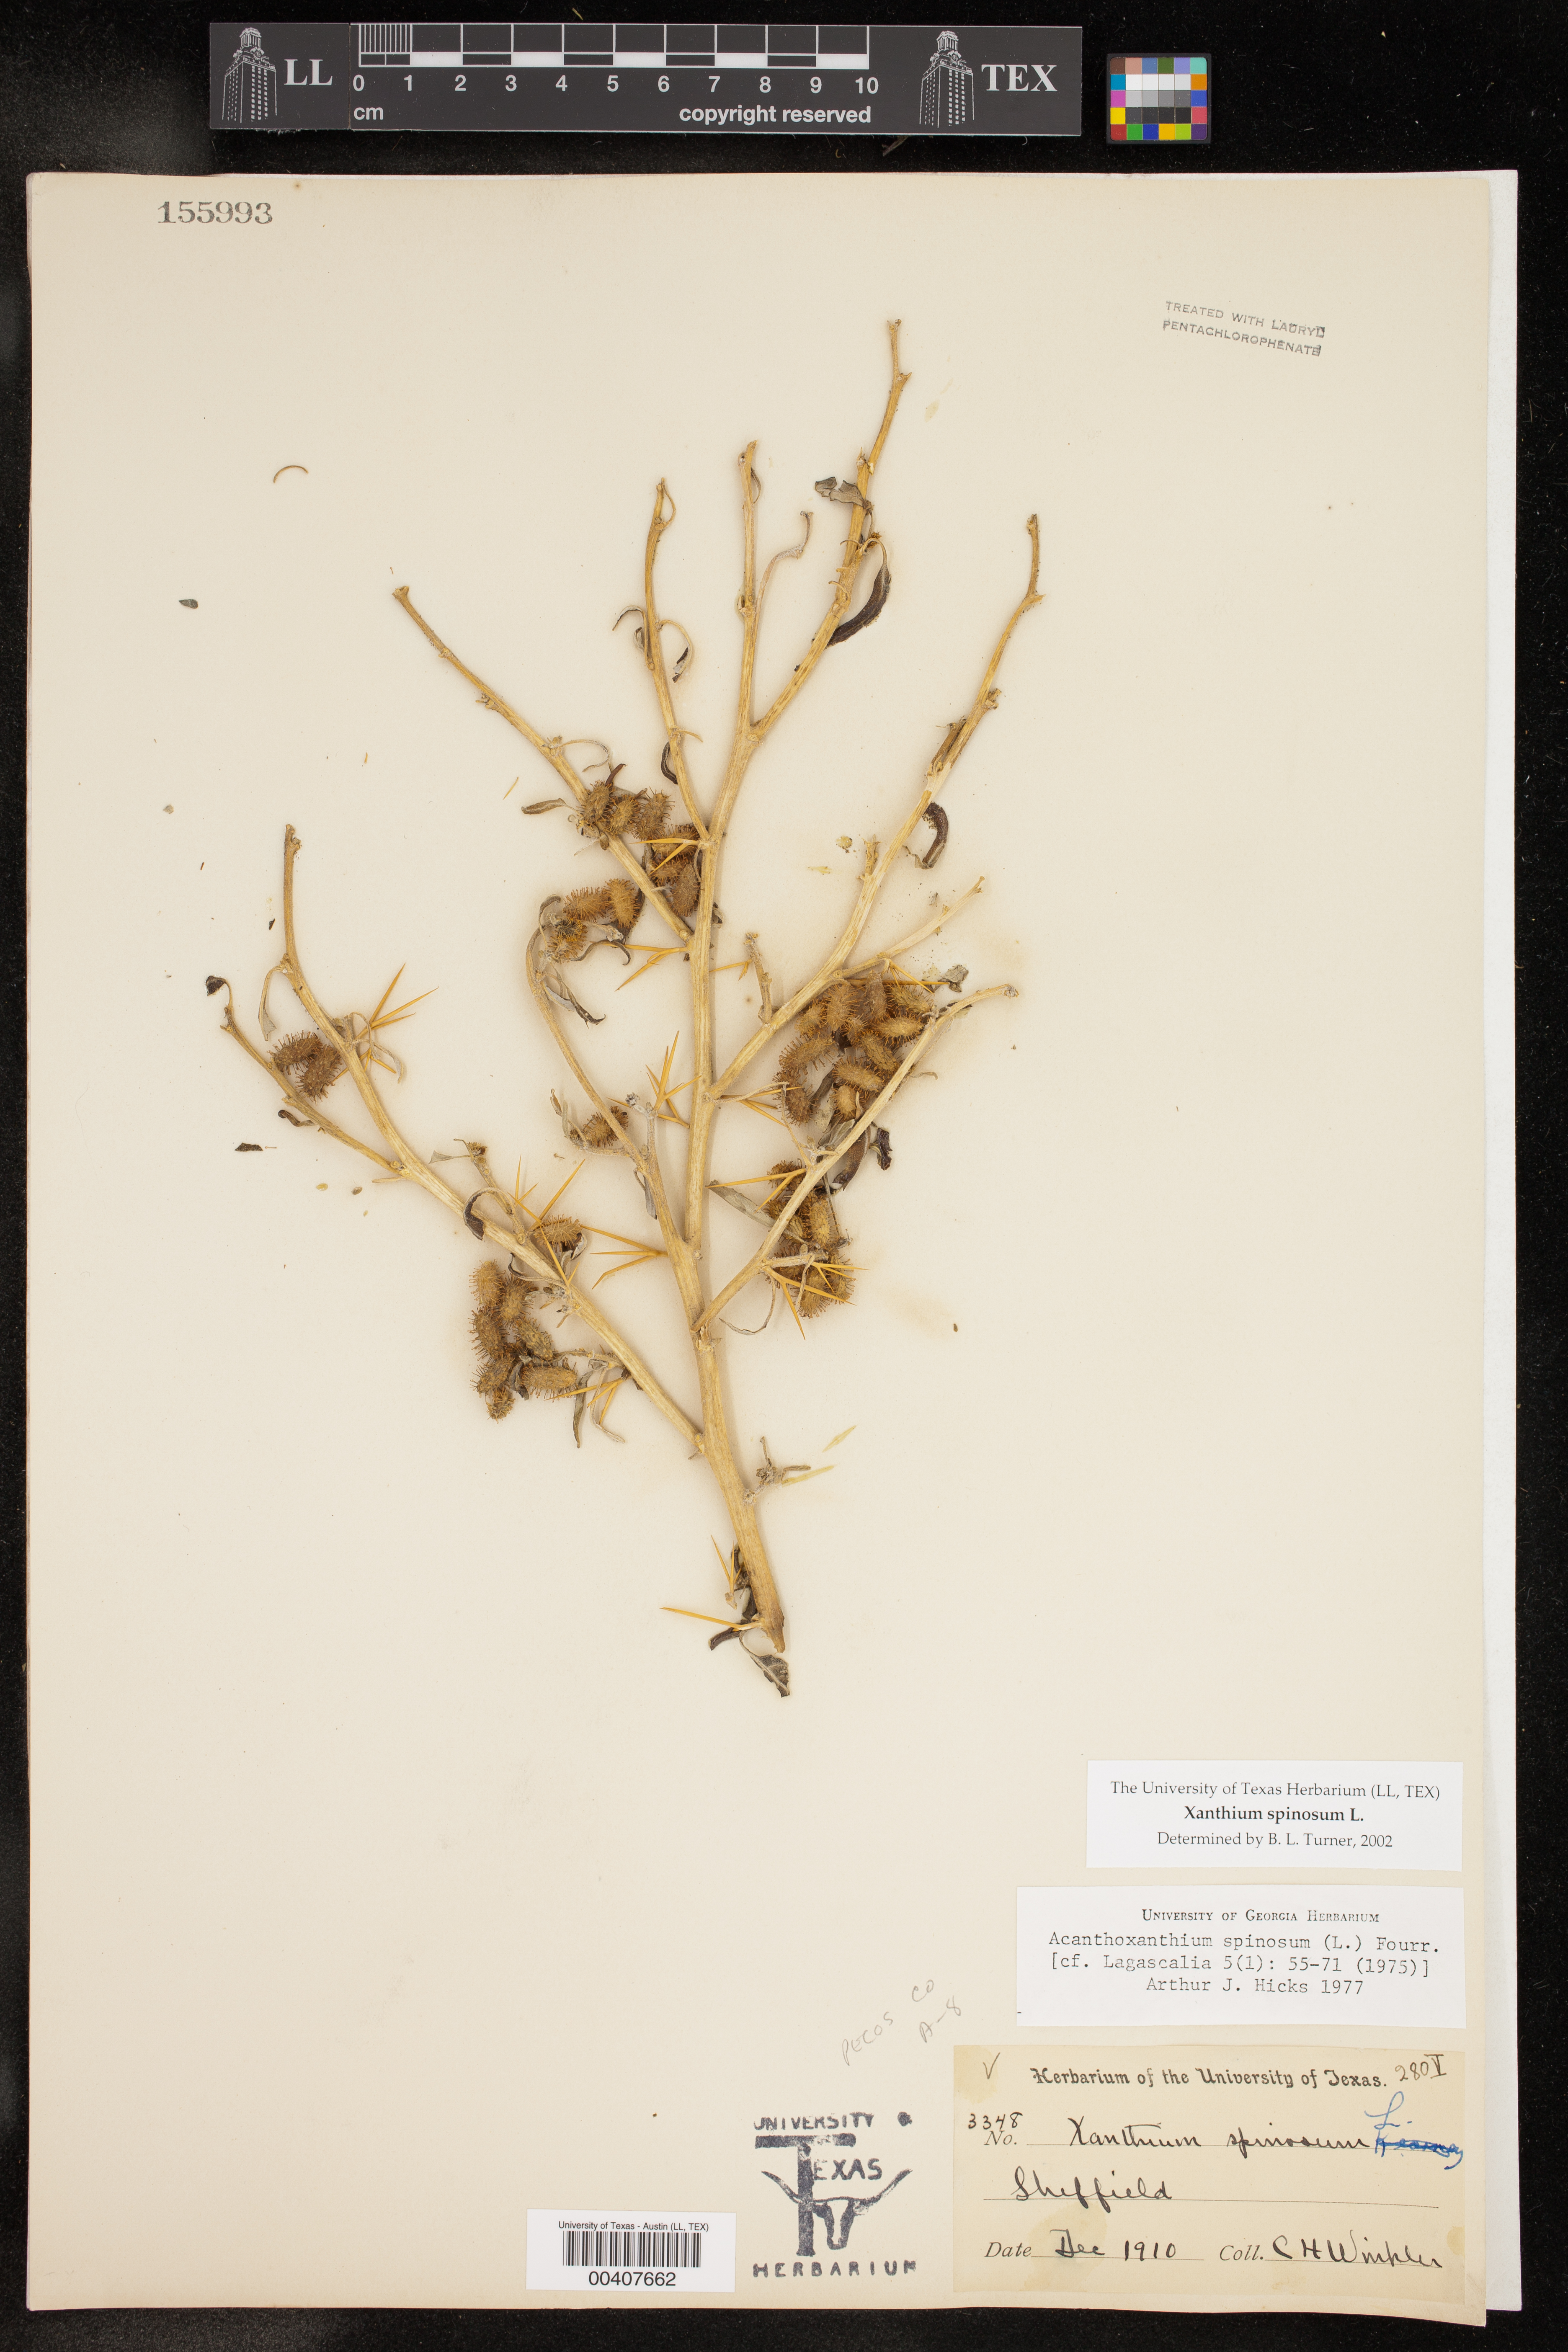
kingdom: Plantae
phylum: Tracheophyta
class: Magnoliopsida
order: Asterales
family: Asteraceae
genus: Xanthium
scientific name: Xanthium spinosum
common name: Spiny cocklebur
